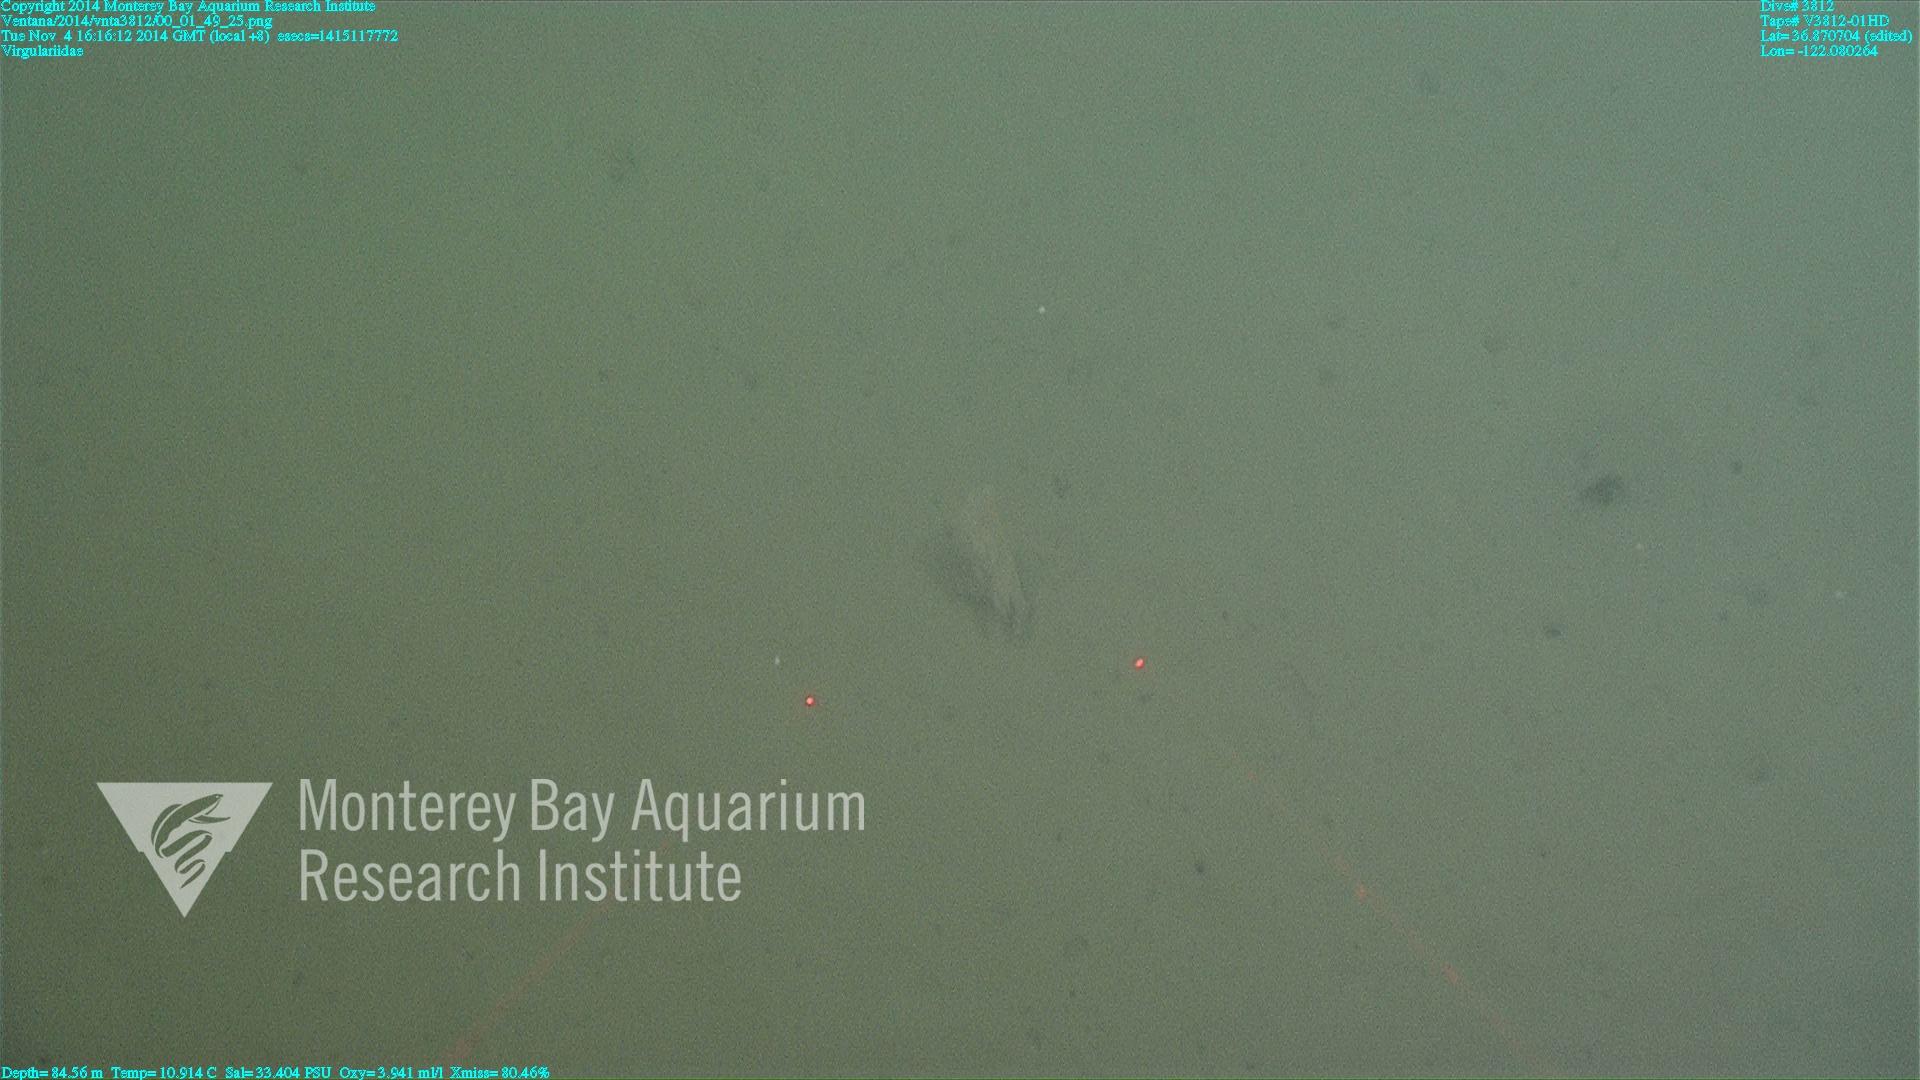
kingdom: Animalia
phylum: Cnidaria
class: Anthozoa
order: Scleralcyonacea
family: Virgulariidae
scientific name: Virgulariidae
